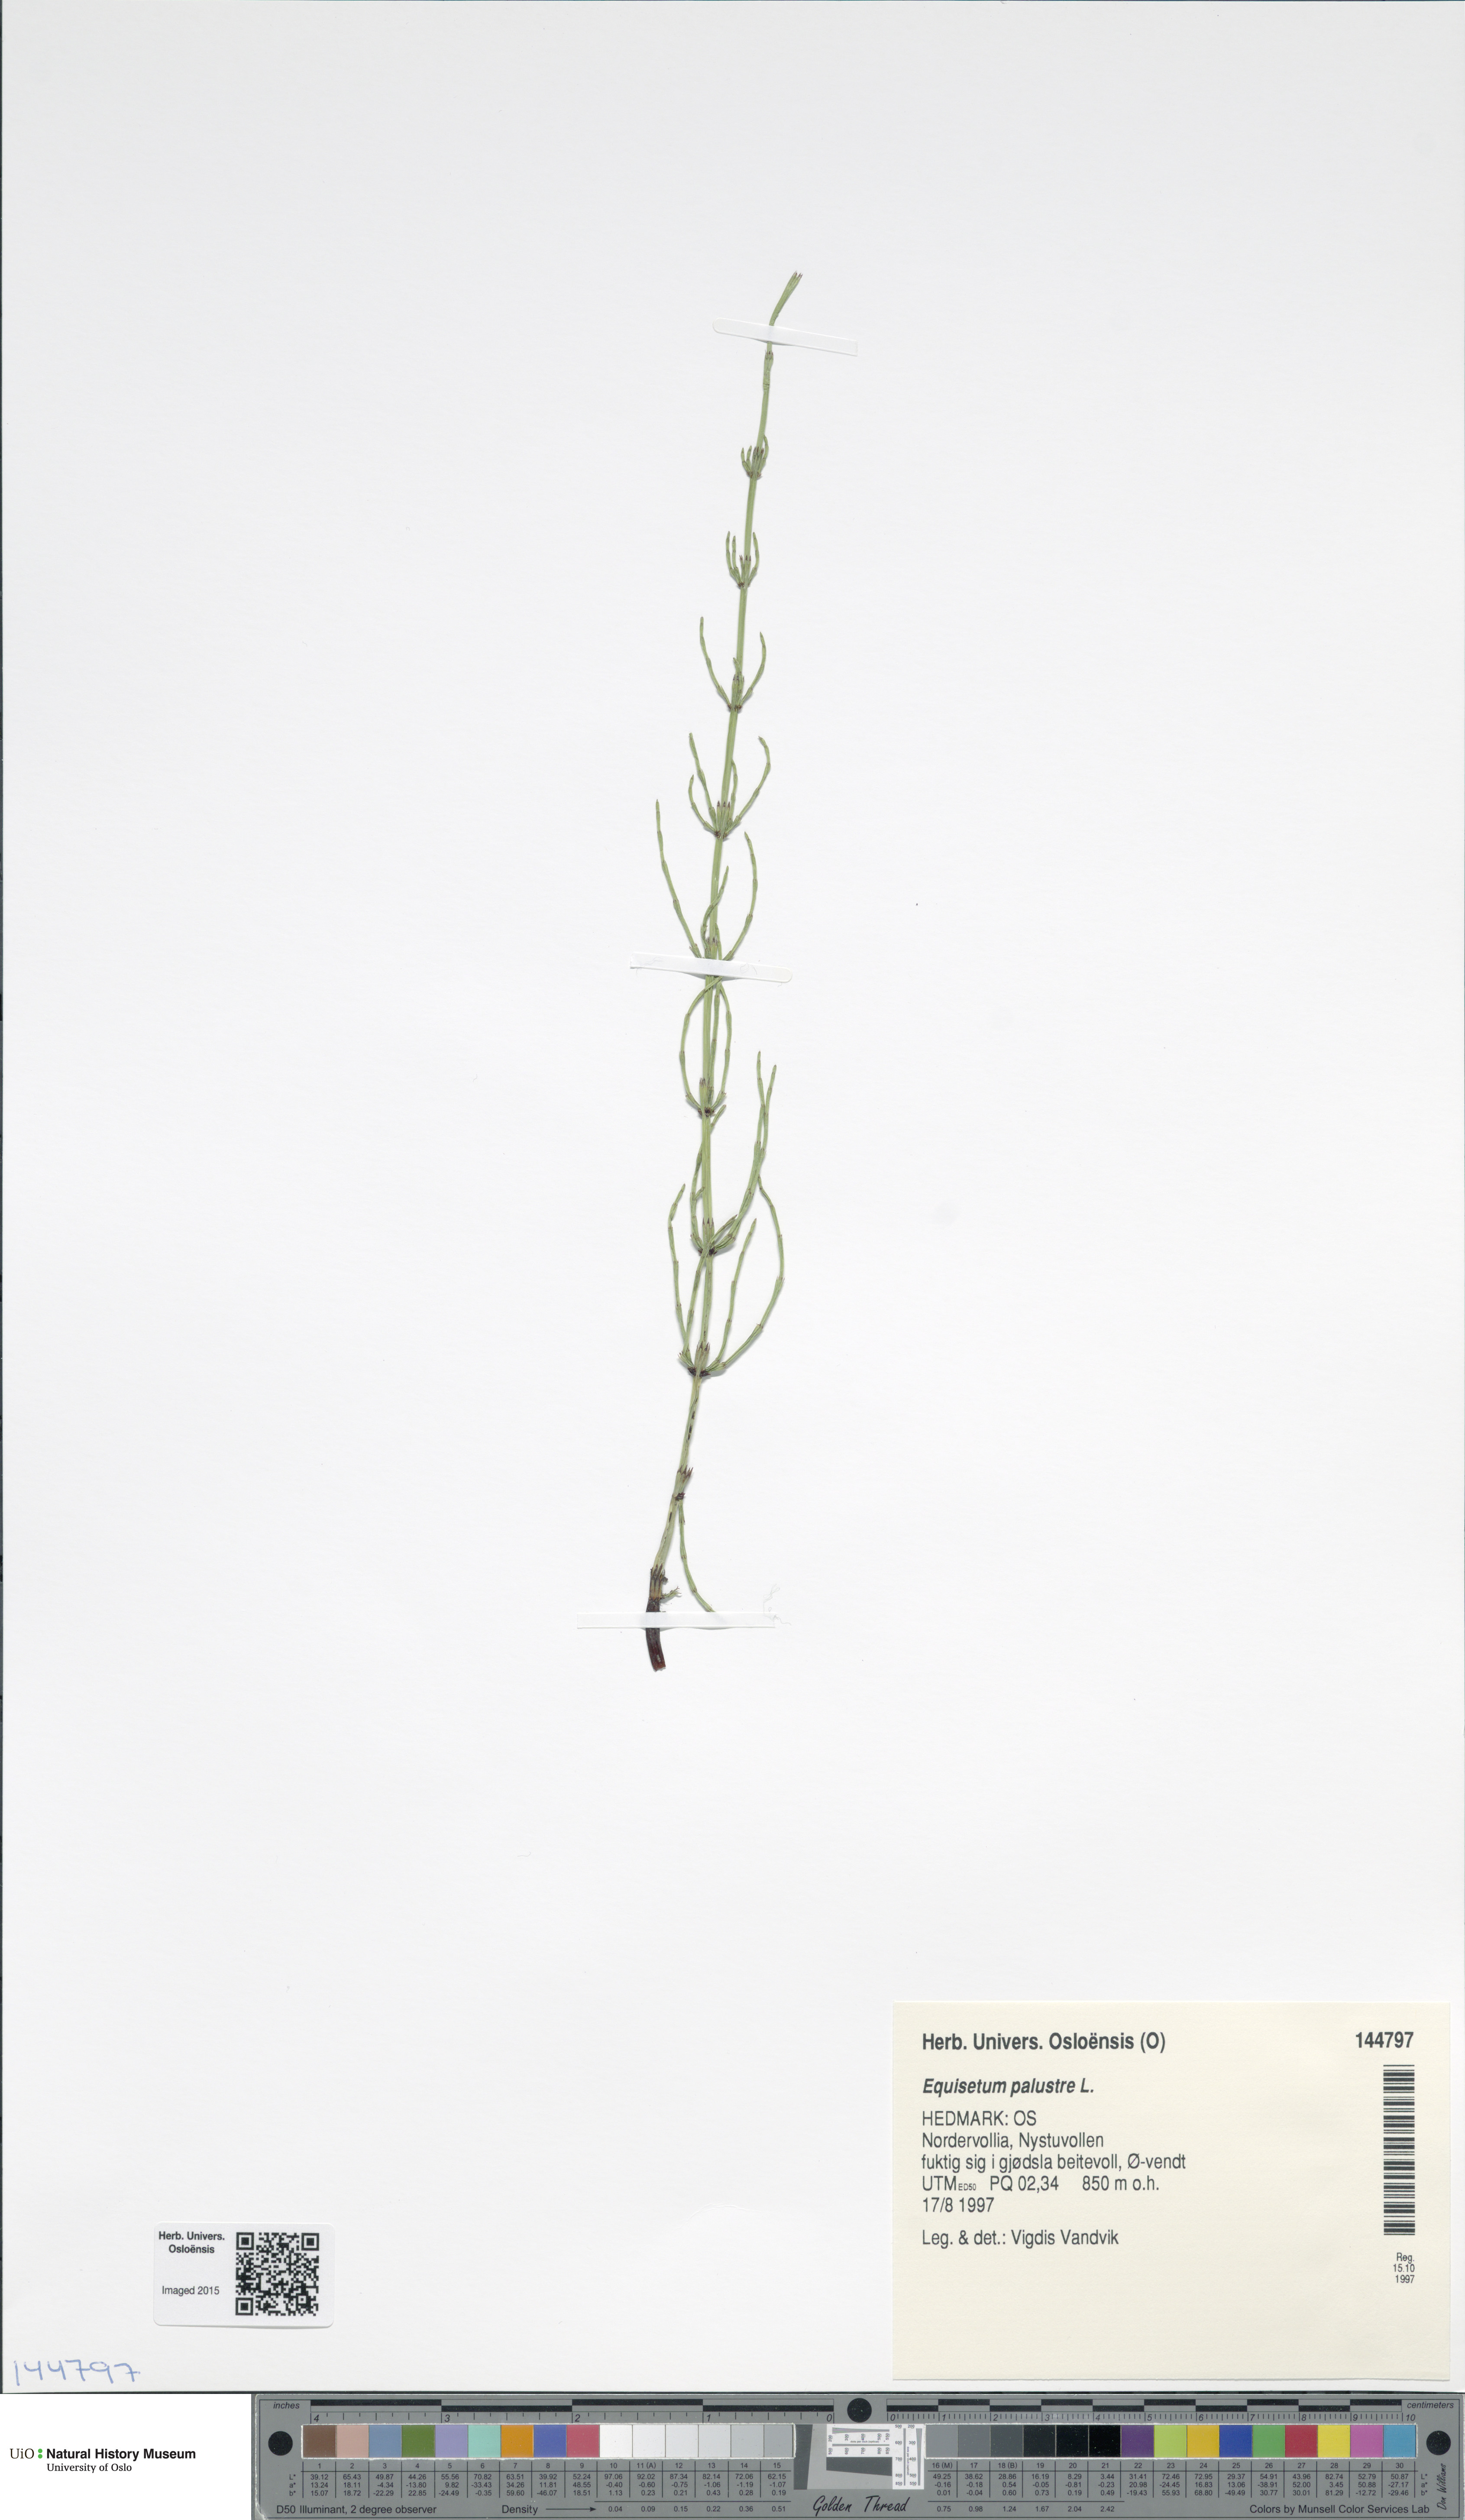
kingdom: Plantae
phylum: Tracheophyta
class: Polypodiopsida
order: Equisetales
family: Equisetaceae
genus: Equisetum
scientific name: Equisetum palustre
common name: Marsh horsetail
